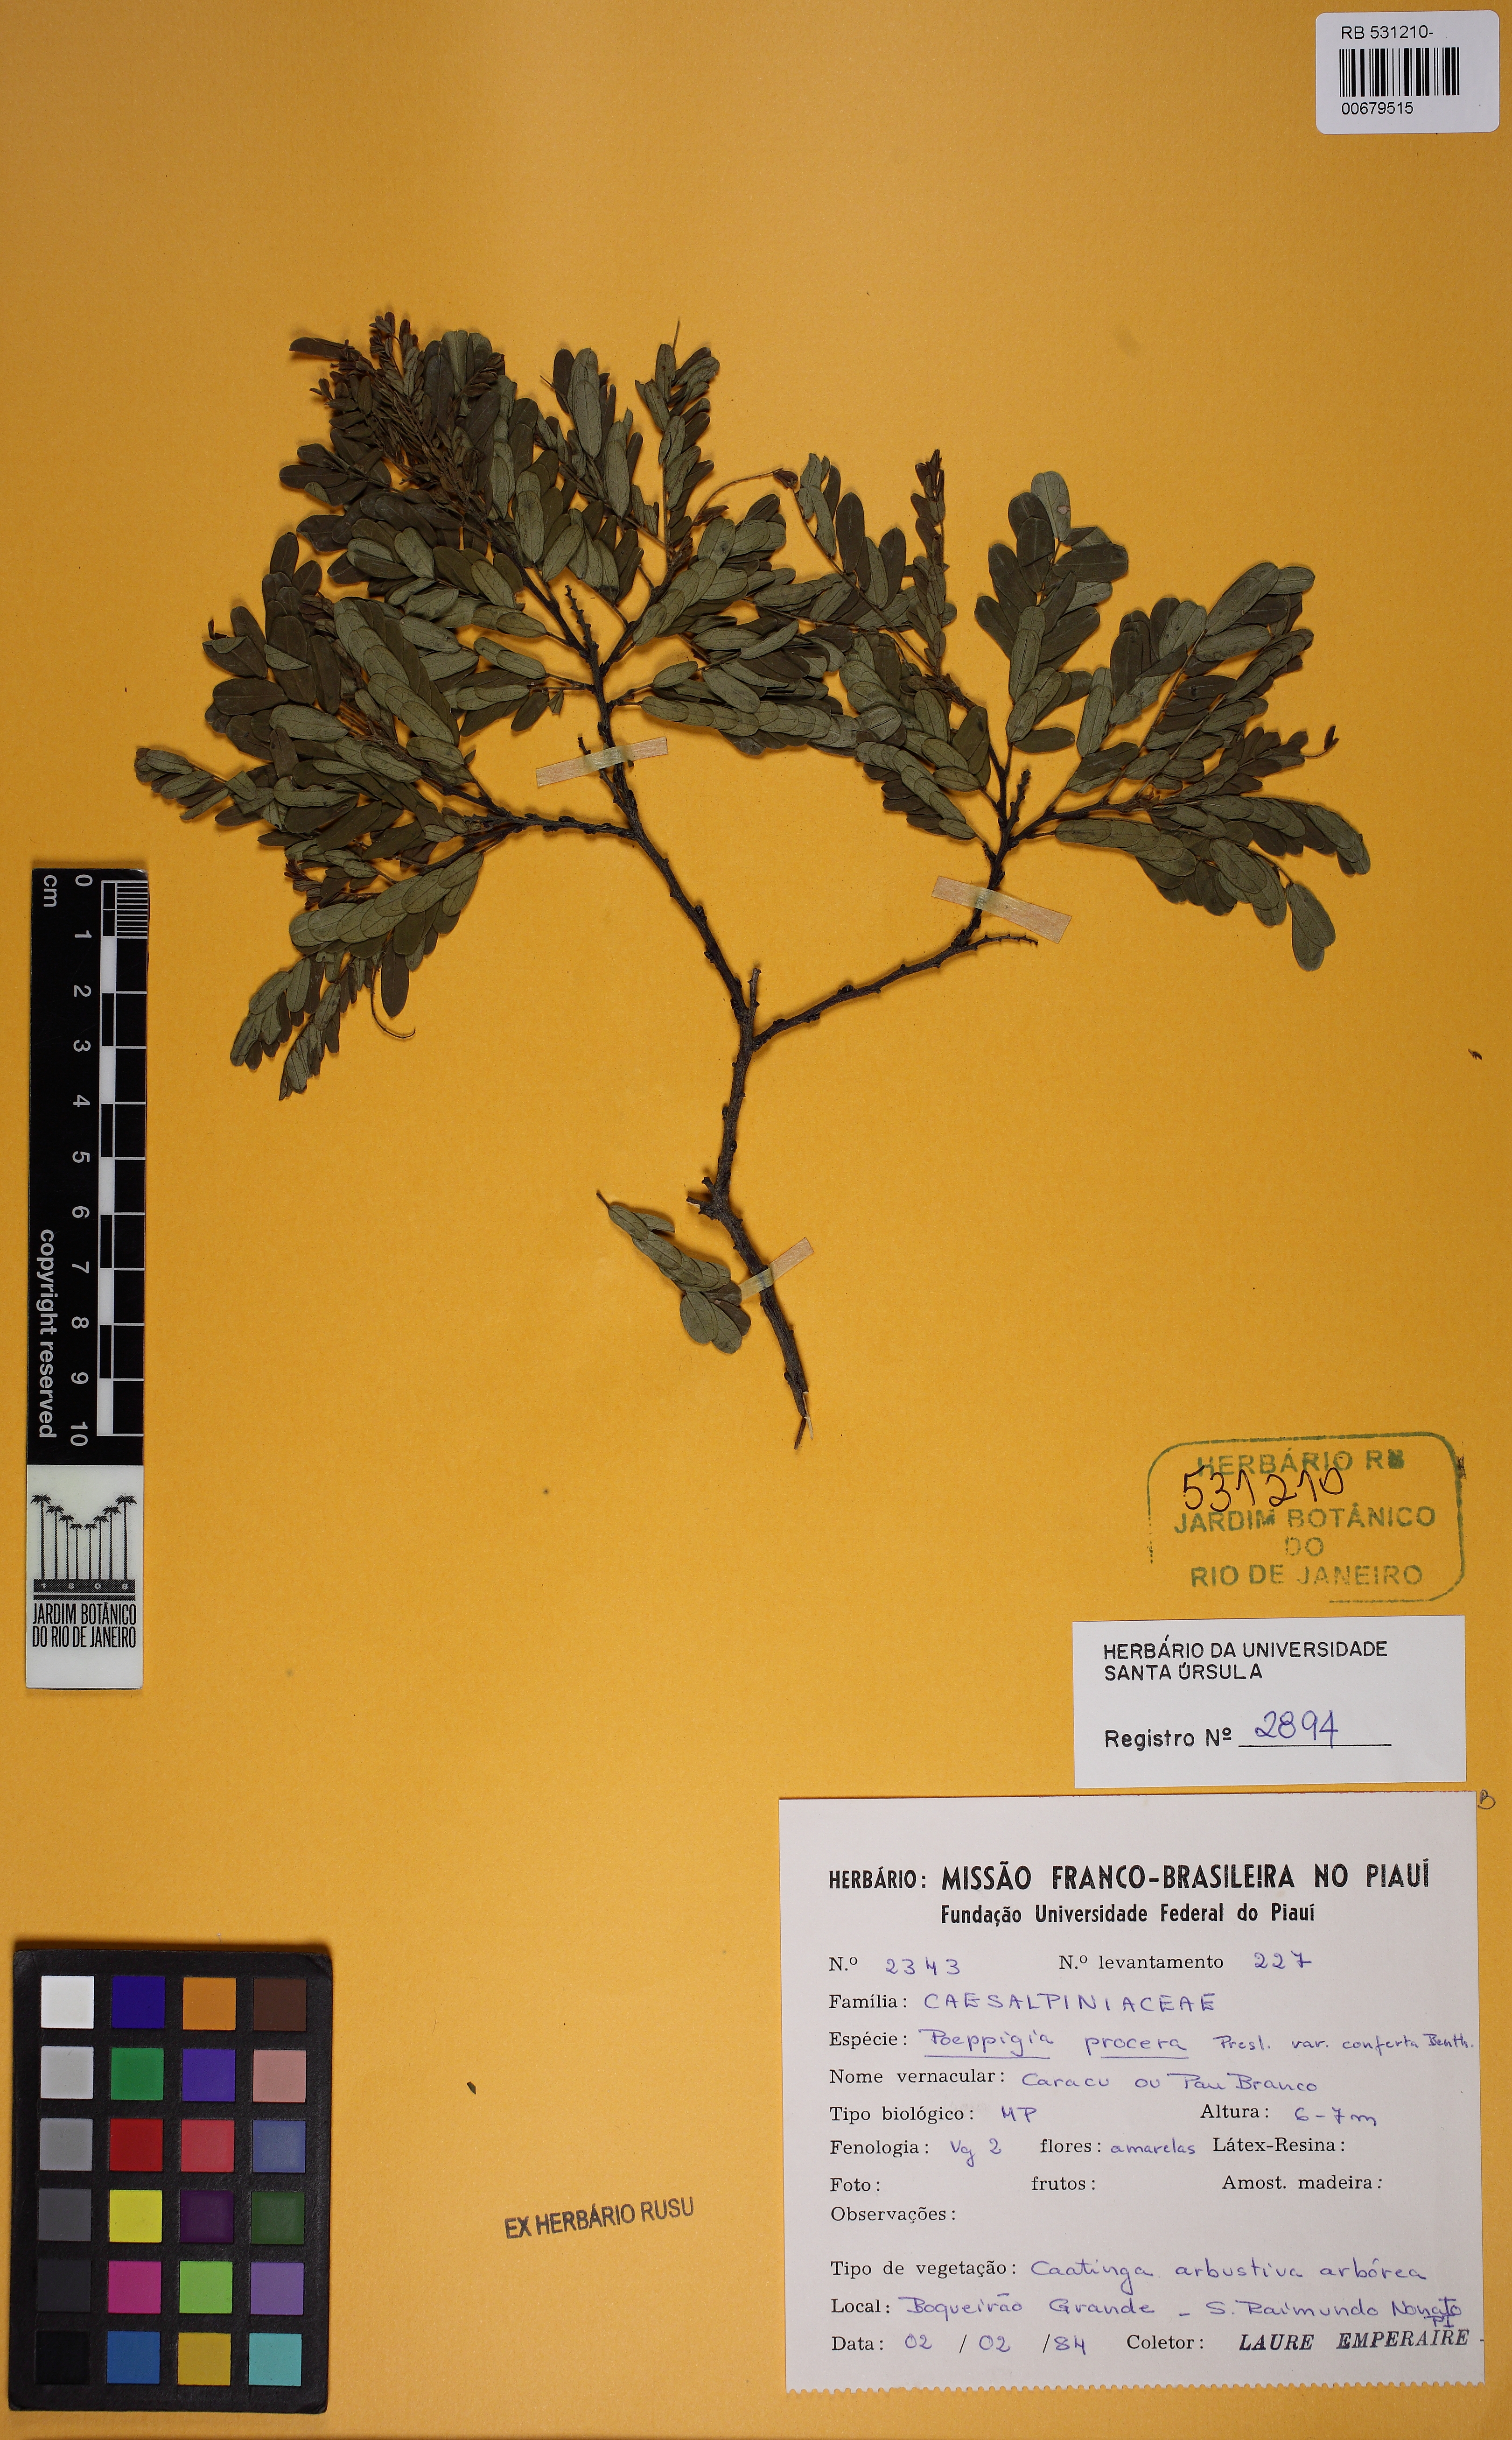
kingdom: Plantae
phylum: Tracheophyta
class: Magnoliopsida
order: Fabales
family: Fabaceae
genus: Poeppigia
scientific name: Poeppigia densiflora
